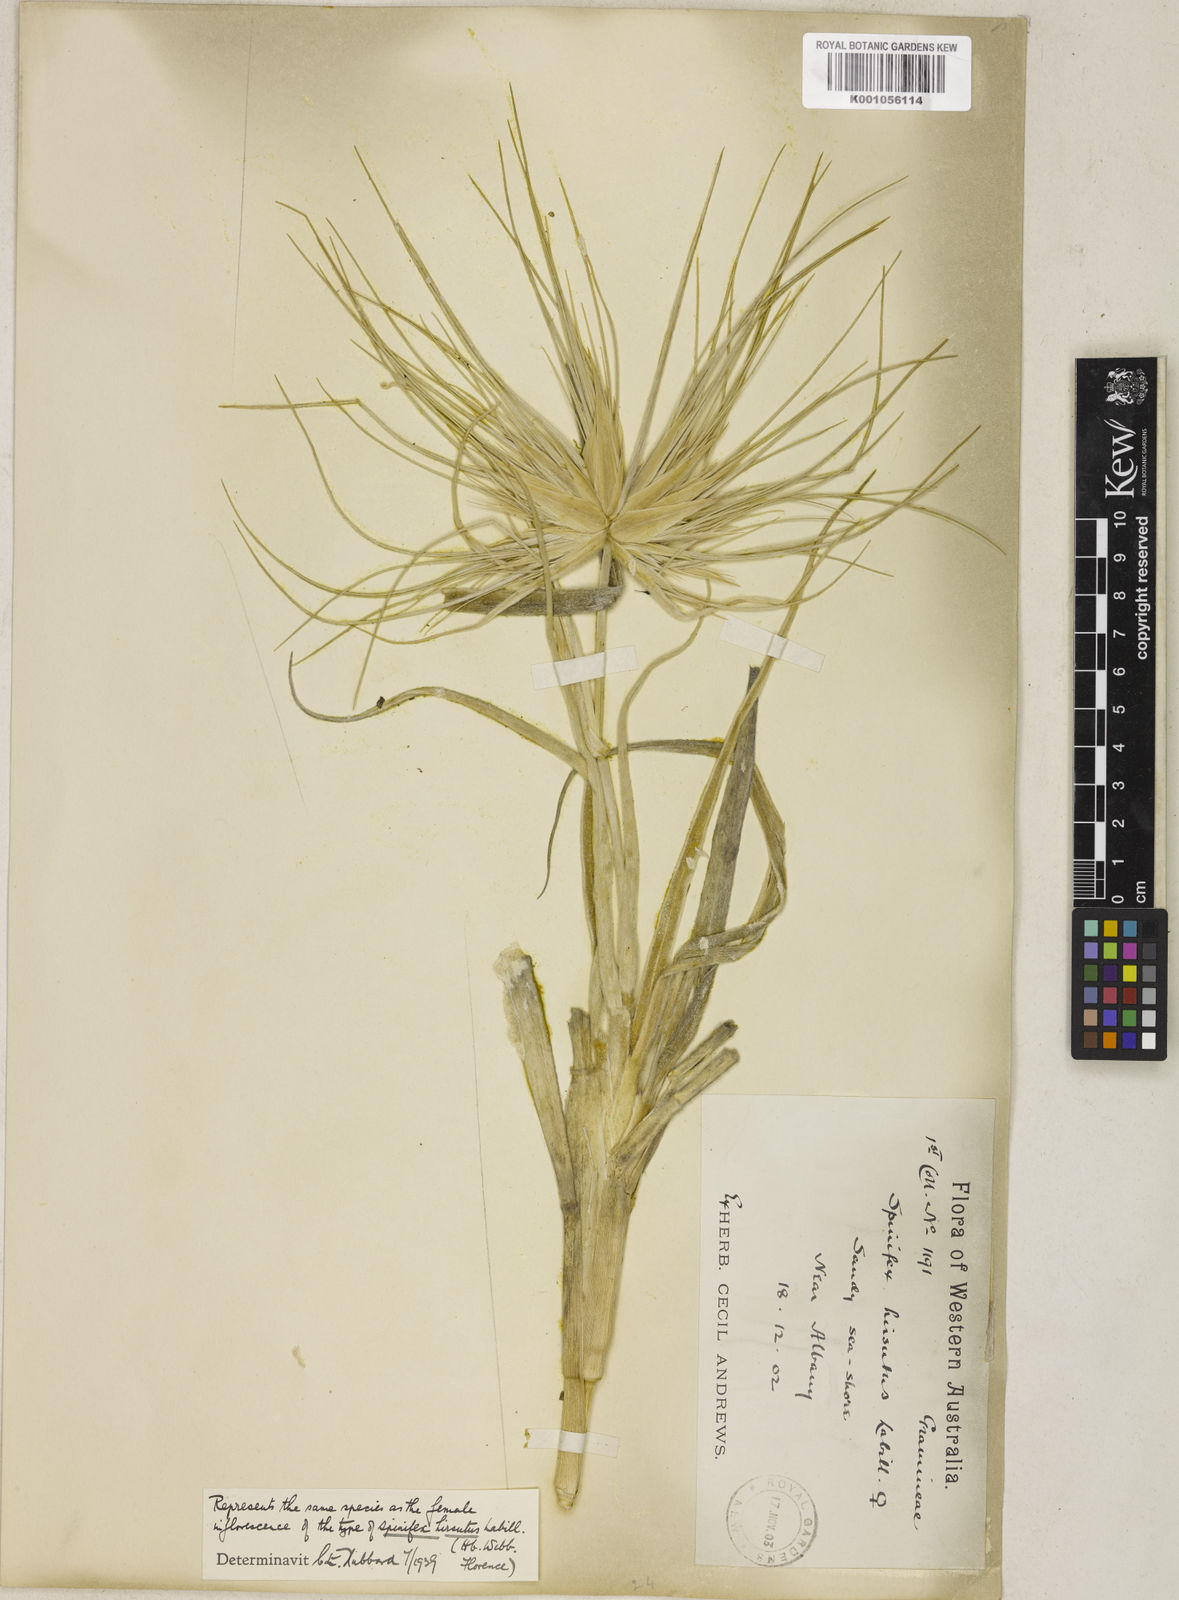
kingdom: Plantae
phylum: Tracheophyta
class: Liliopsida
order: Poales
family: Poaceae
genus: Spinifex
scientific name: Spinifex hirsutus
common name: Hairy spinifex
